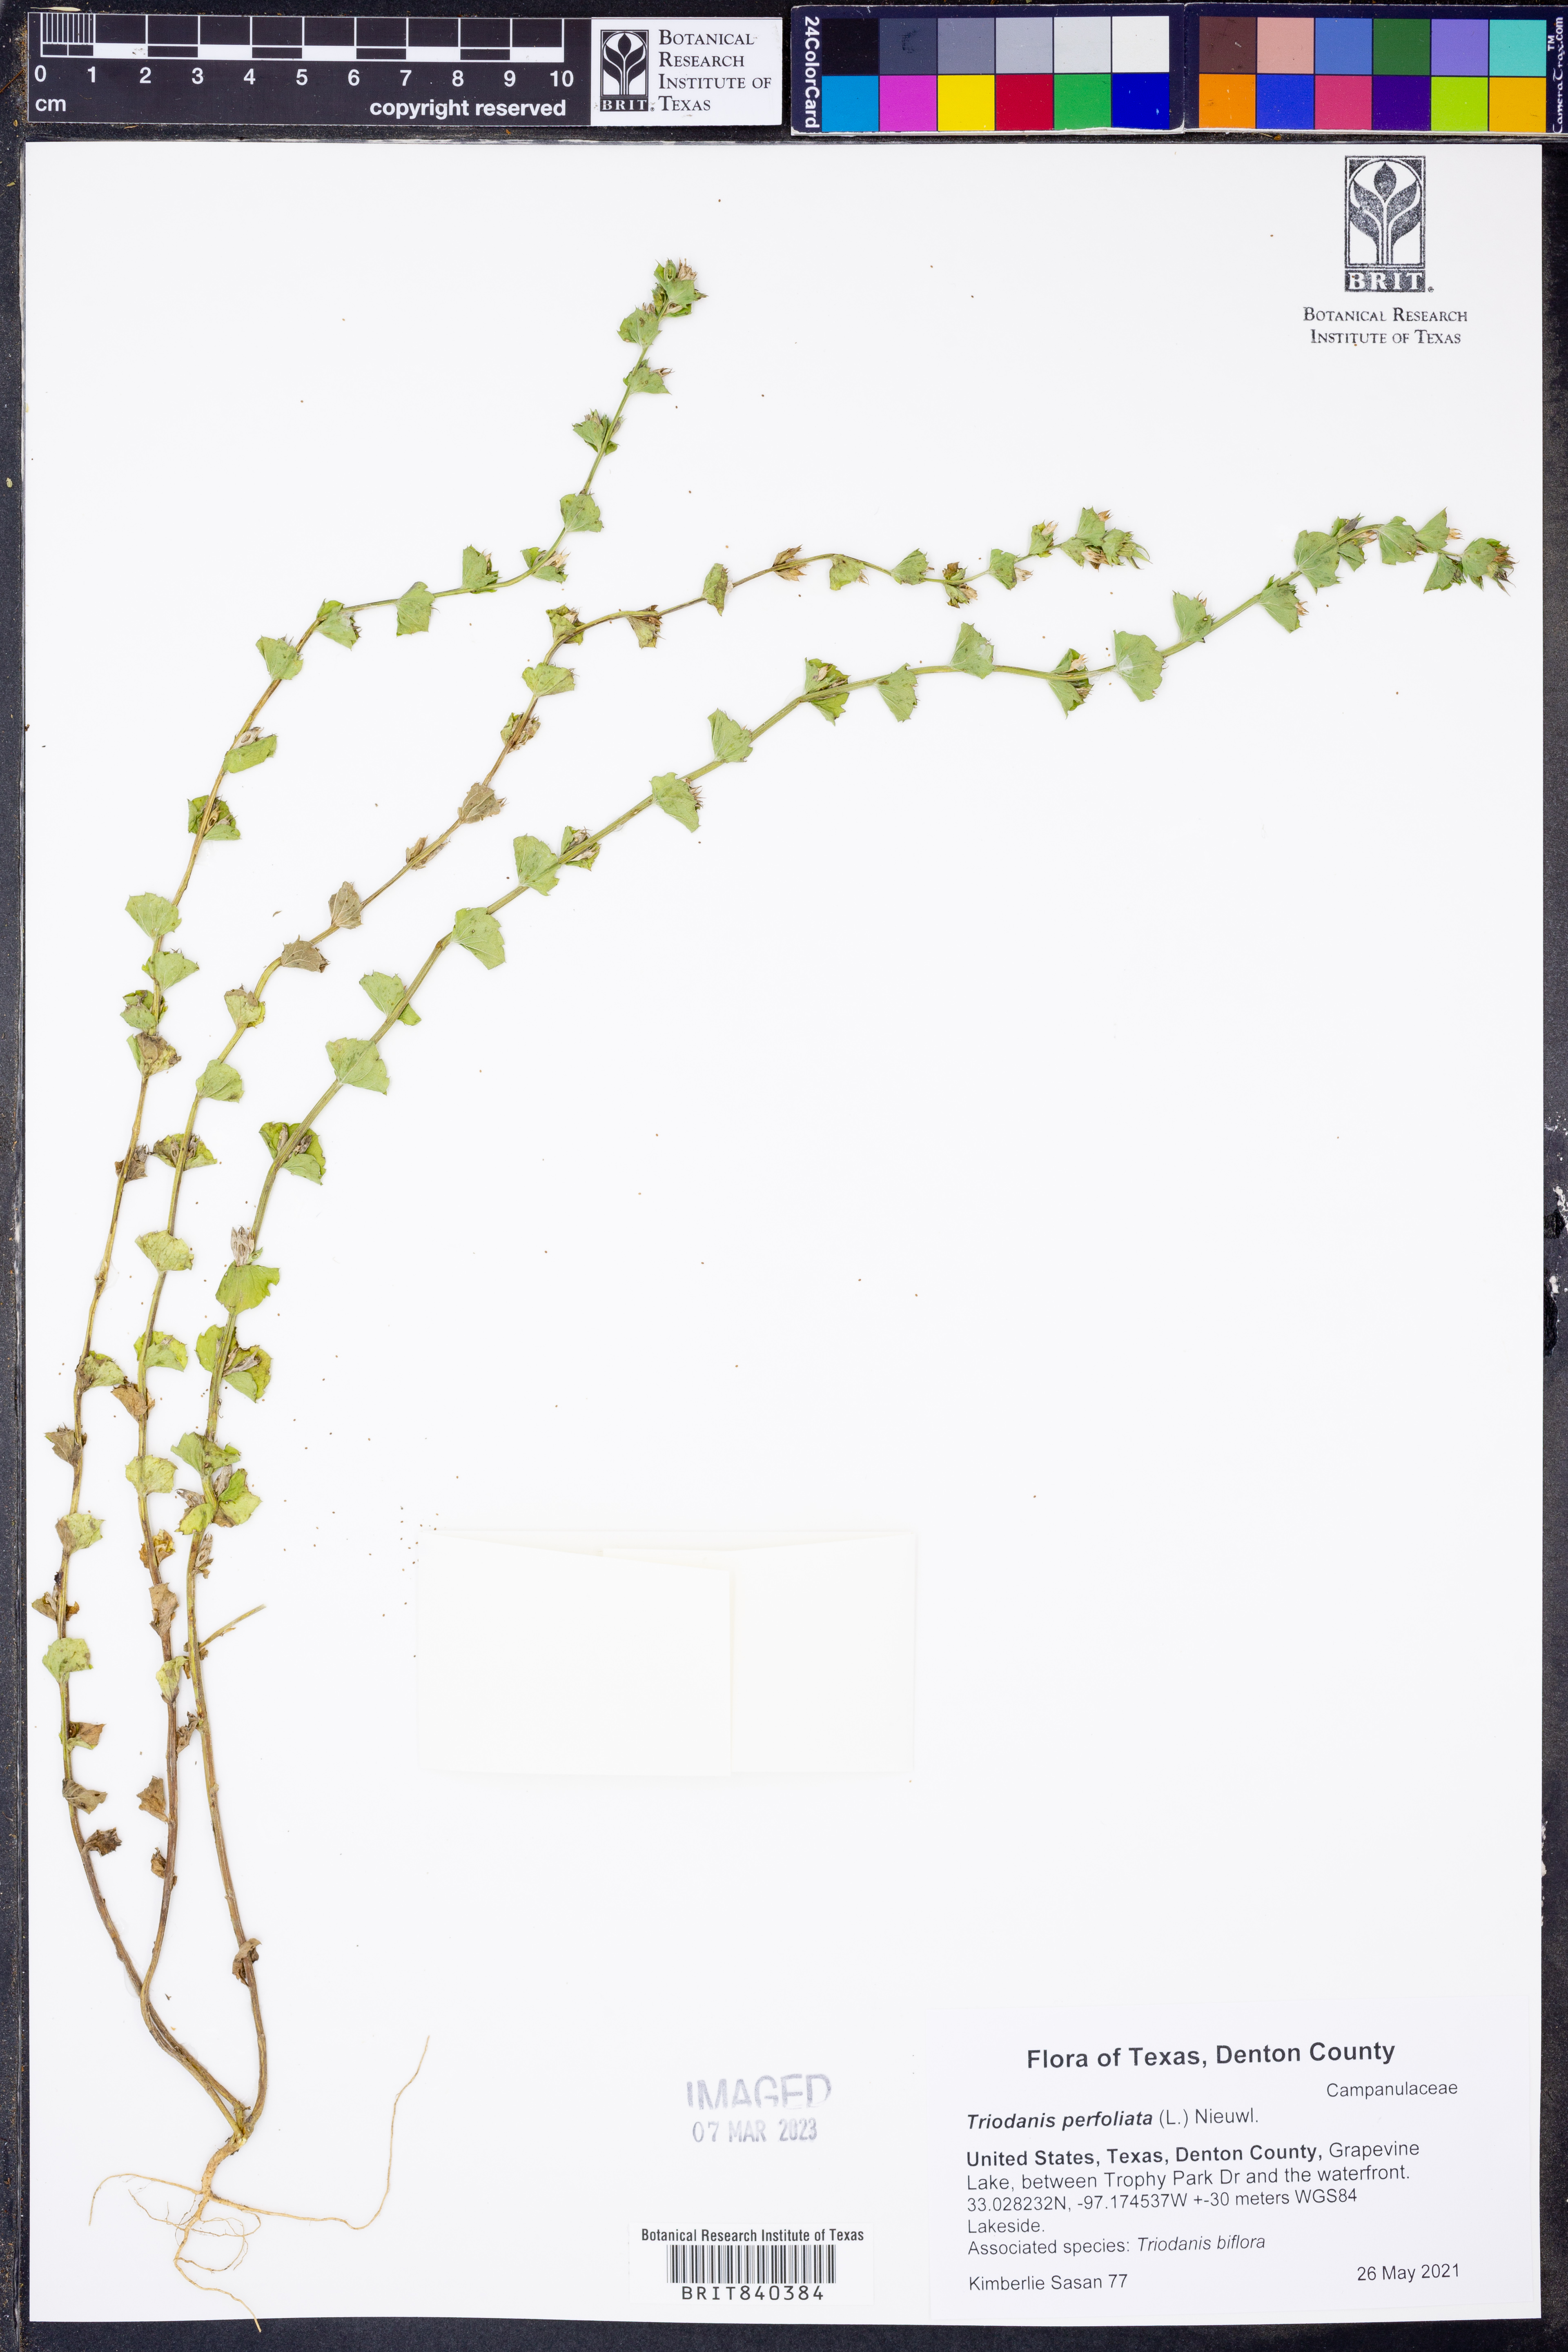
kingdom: Plantae
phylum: Tracheophyta
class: Magnoliopsida
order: Asterales
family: Campanulaceae
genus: Triodanis
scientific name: Triodanis perfoliata
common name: Clasping venus' looking-glass
